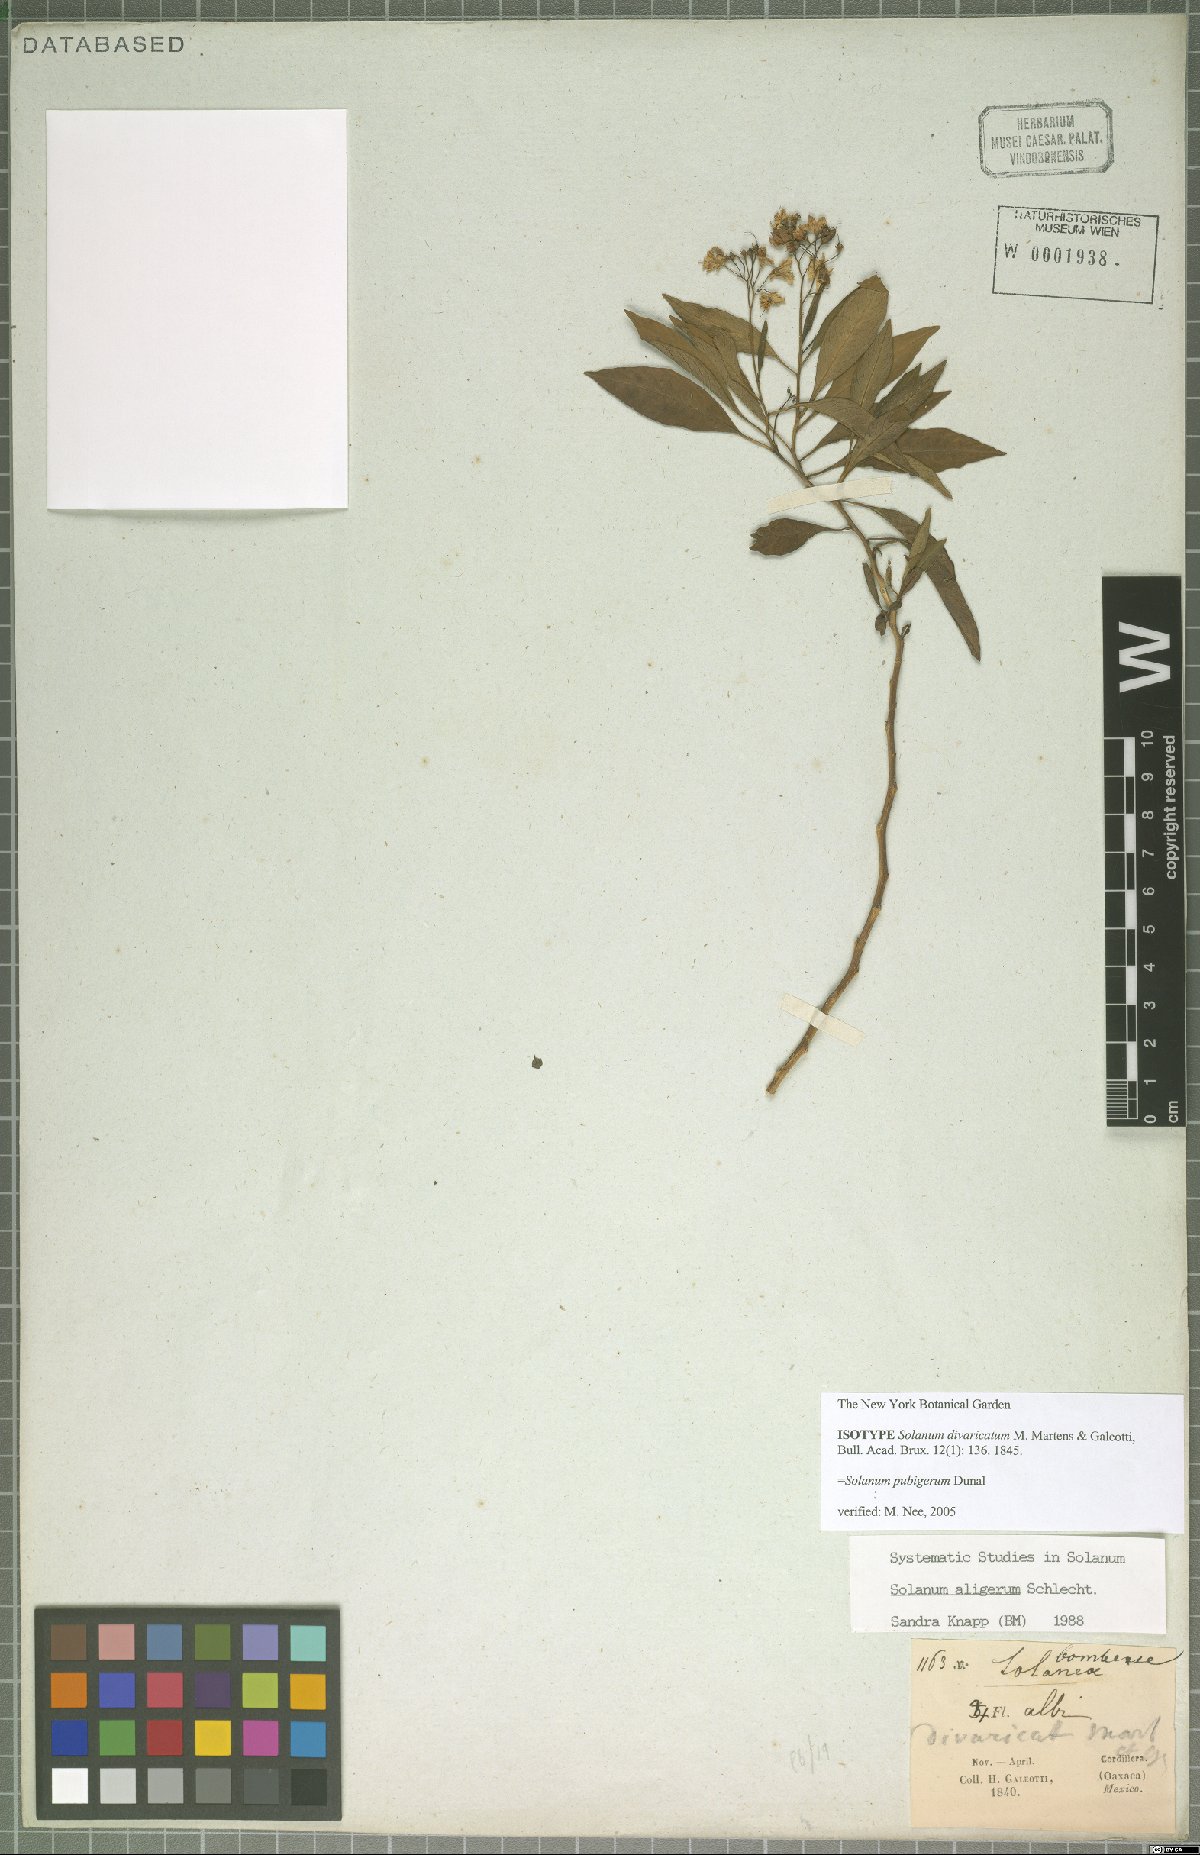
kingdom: Plantae
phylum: Tracheophyta
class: Magnoliopsida
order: Solanales
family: Solanaceae
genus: Solanum
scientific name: Solanum pubigerum
